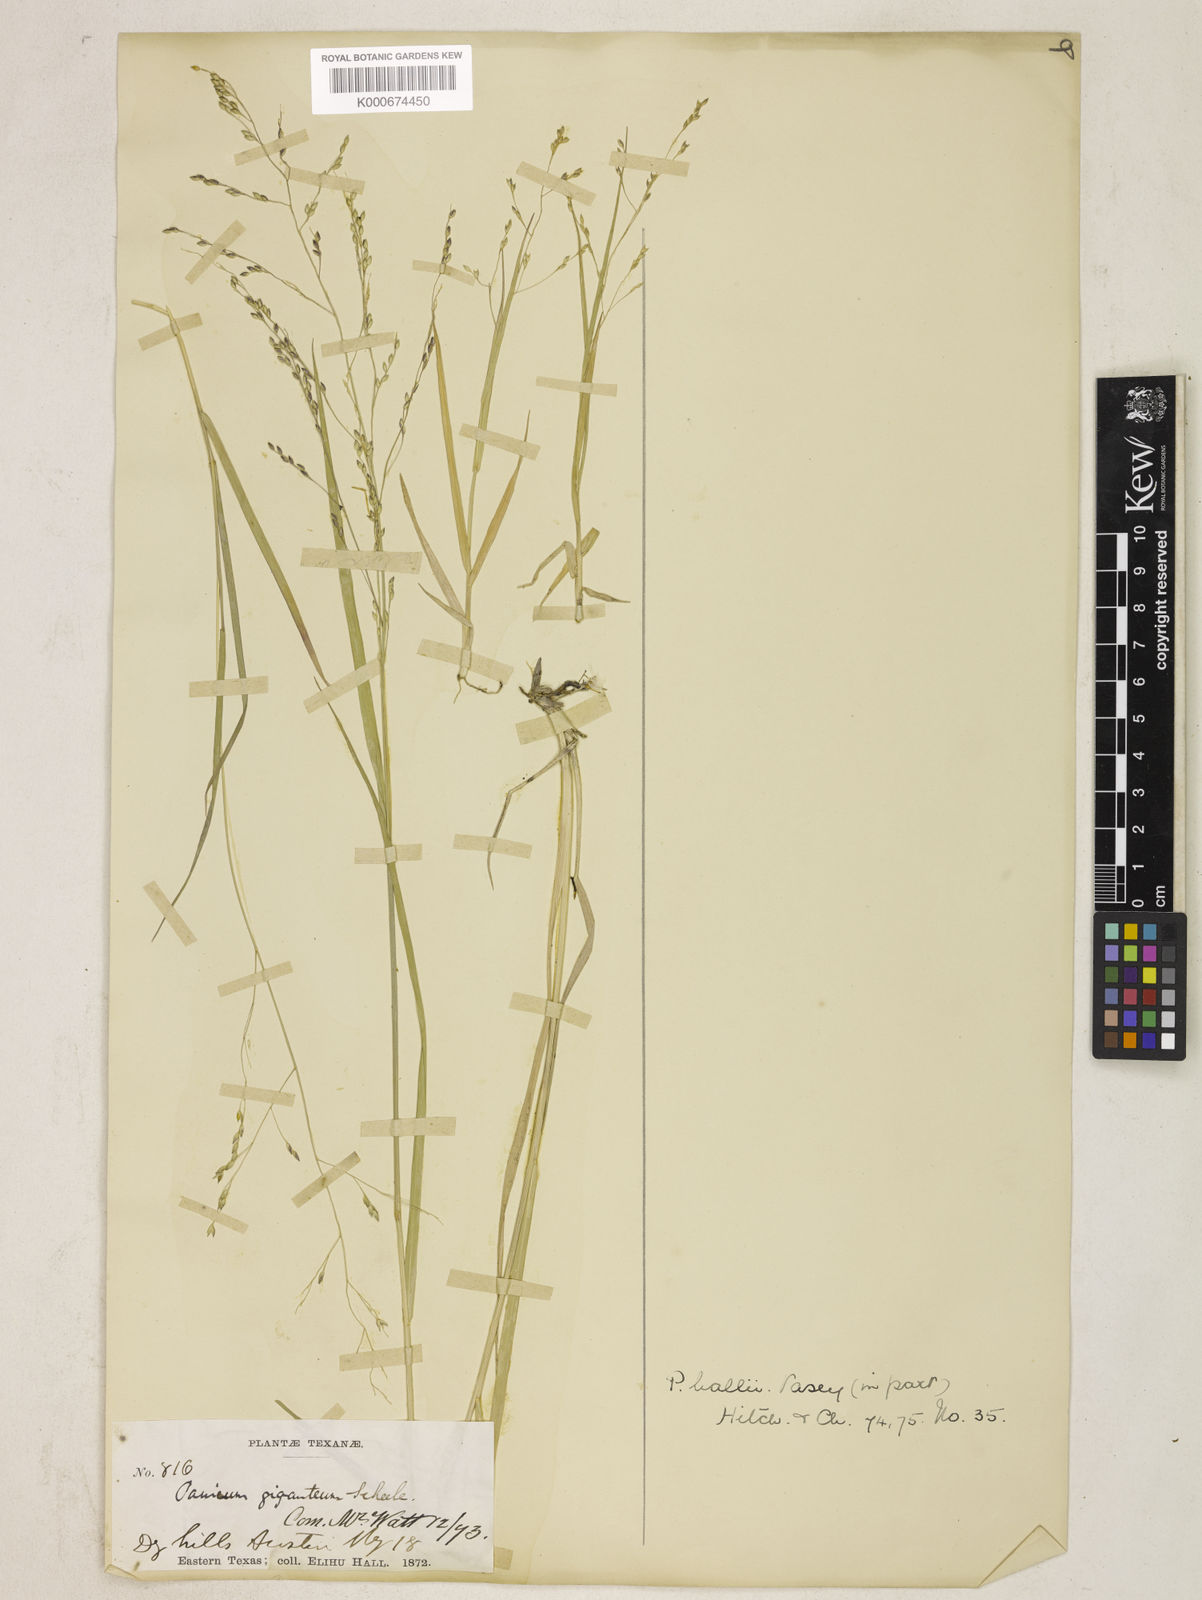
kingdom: Plantae
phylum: Tracheophyta
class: Liliopsida
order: Poales
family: Poaceae
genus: Panicum
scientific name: Panicum hallii
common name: Hall's witchgrass
